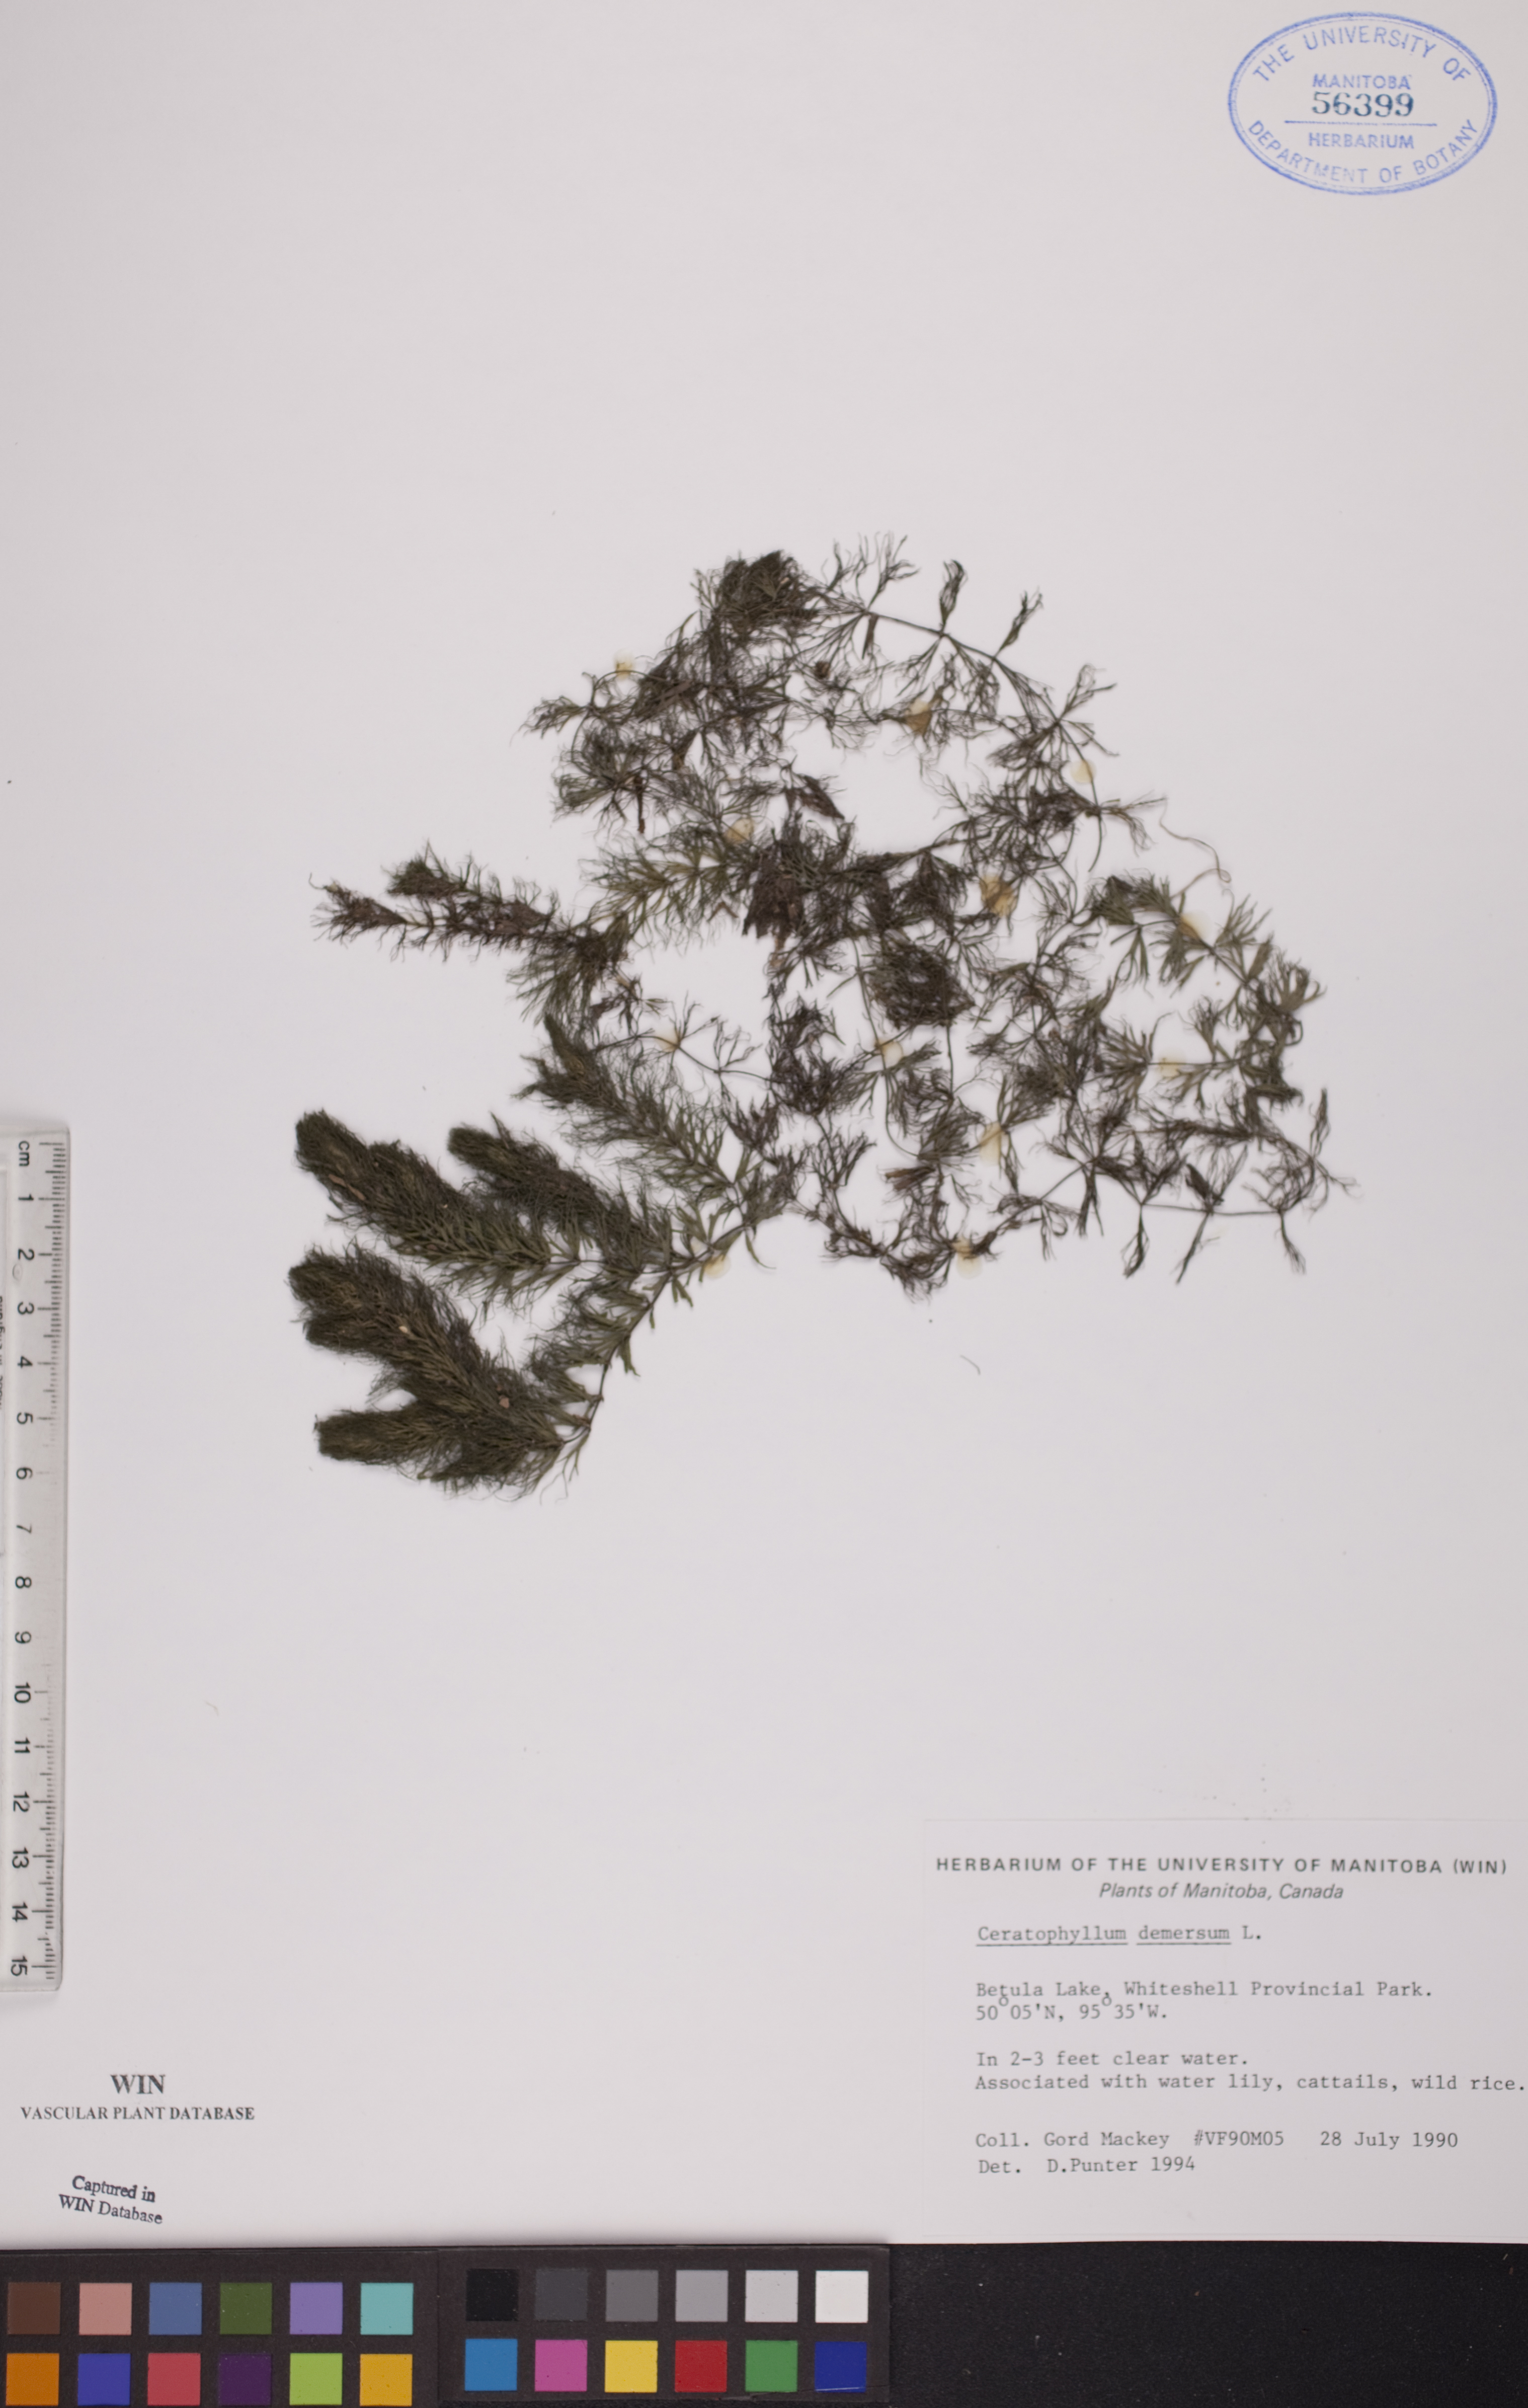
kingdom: Plantae
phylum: Tracheophyta
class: Magnoliopsida
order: Ceratophyllales
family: Ceratophyllaceae
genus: Ceratophyllum
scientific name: Ceratophyllum demersum
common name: Rigid hornwort
